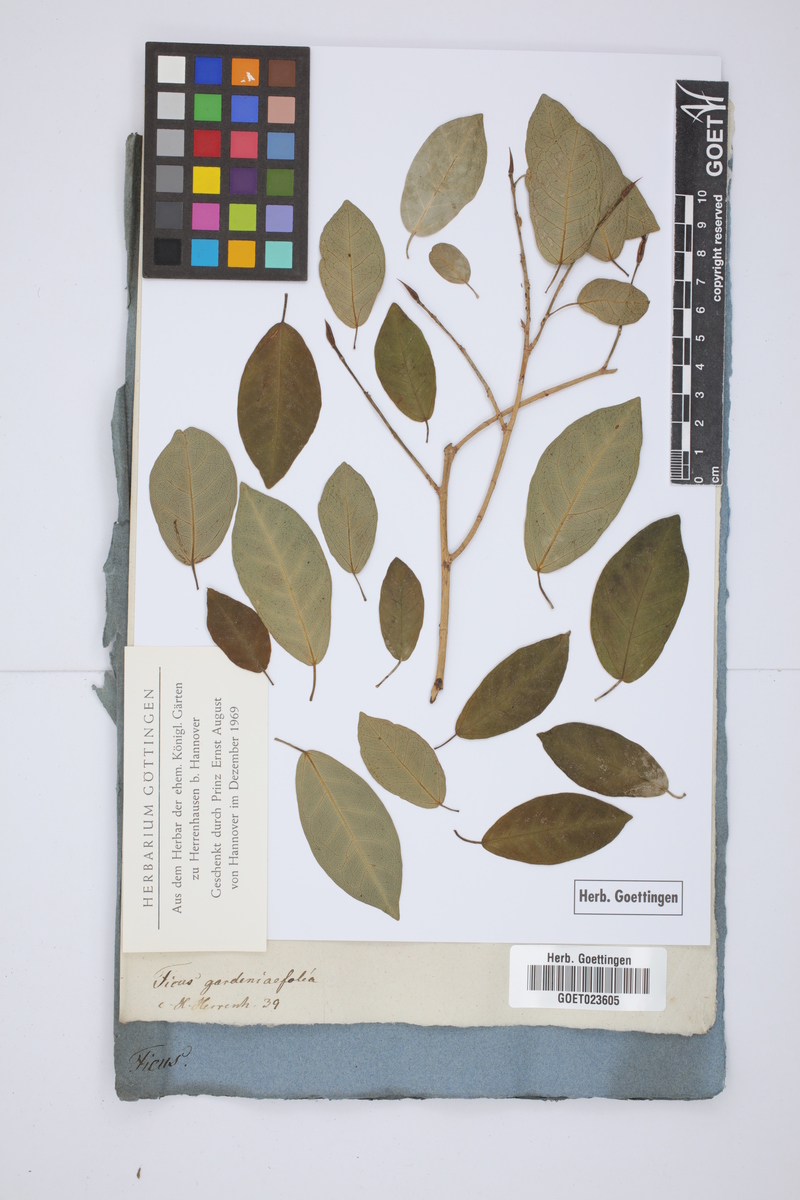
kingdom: Plantae
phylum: Tracheophyta
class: Magnoliopsida
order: Rosales
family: Moraceae
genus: Ficus
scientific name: Ficus pertusa
